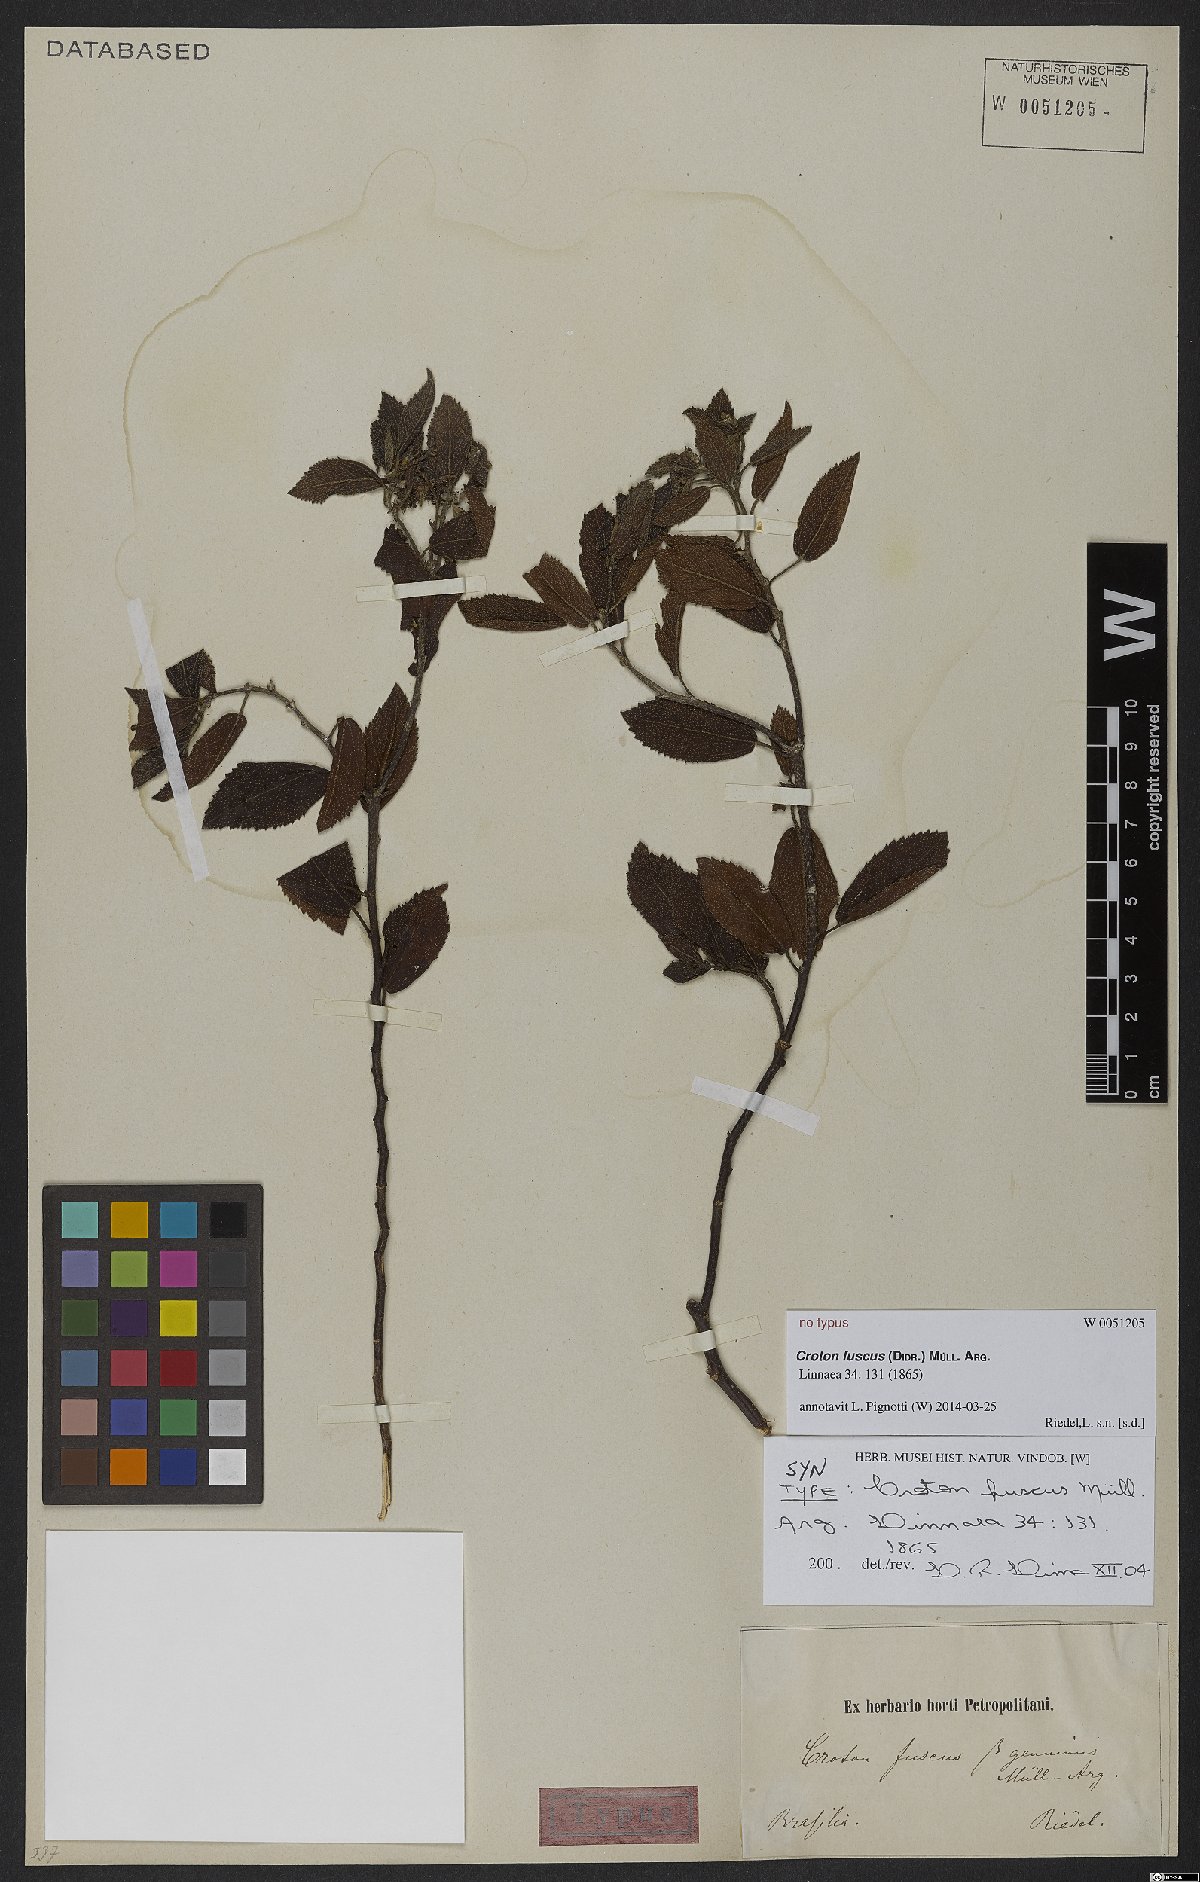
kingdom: Plantae
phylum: Tracheophyta
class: Magnoliopsida
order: Malpighiales
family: Euphorbiaceae
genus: Croton
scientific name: Croton fuscus
